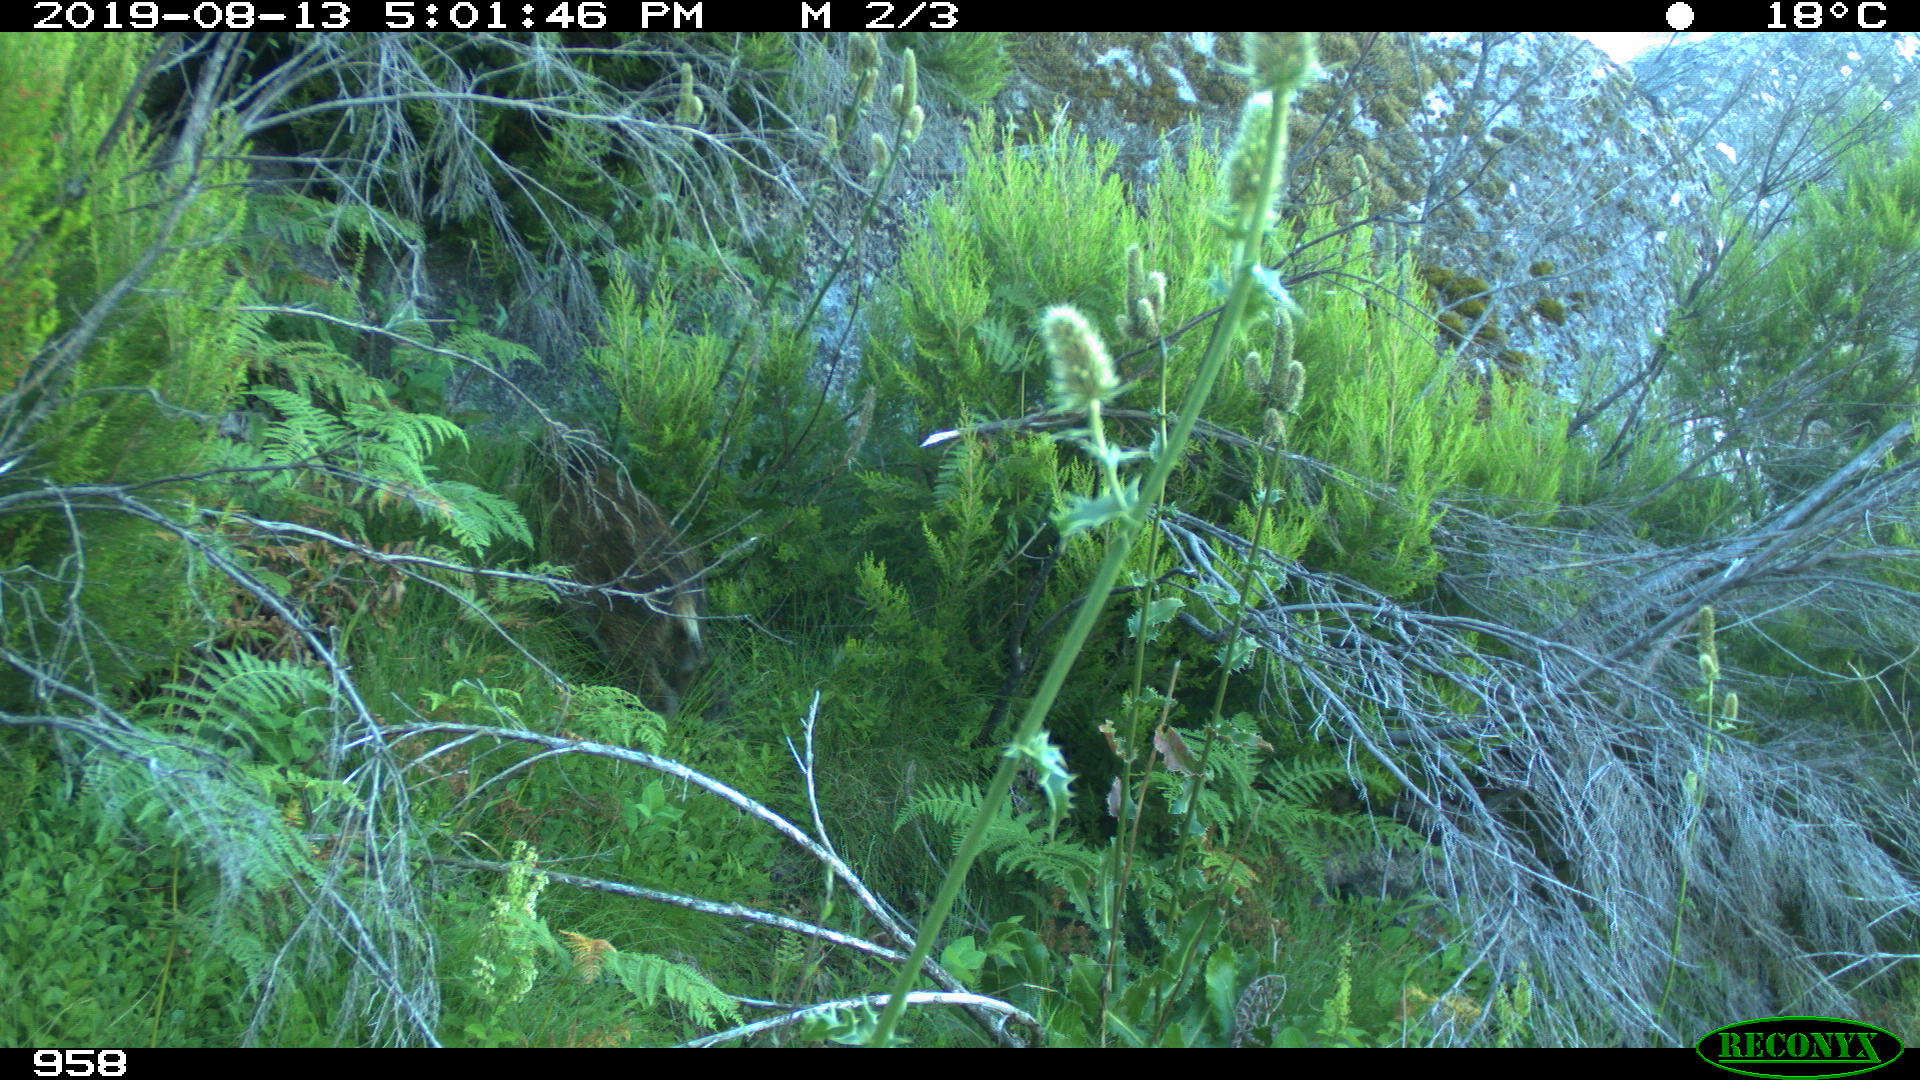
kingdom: Animalia
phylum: Chordata
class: Mammalia
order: Artiodactyla
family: Suidae
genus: Sus
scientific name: Sus scrofa
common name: Wild boar
